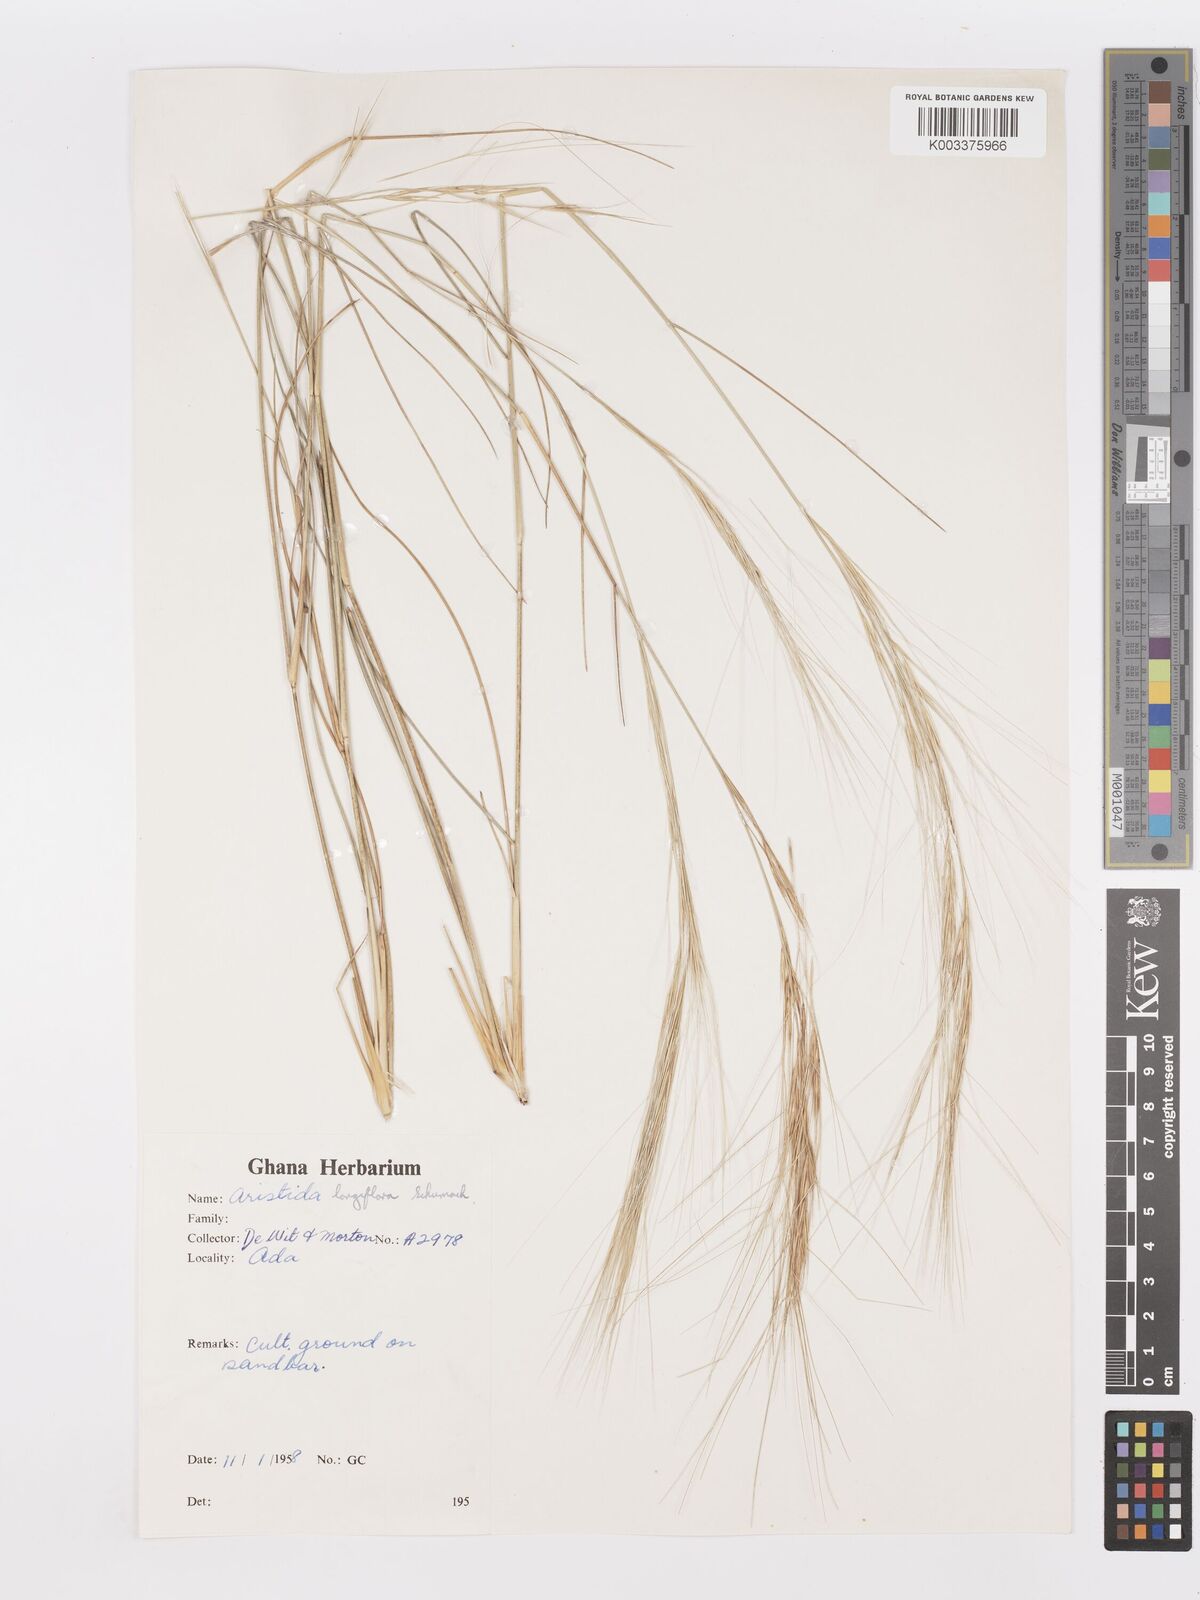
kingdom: Plantae
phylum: Tracheophyta
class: Liliopsida
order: Poales
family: Poaceae
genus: Aristida
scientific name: Aristida sieberiana
